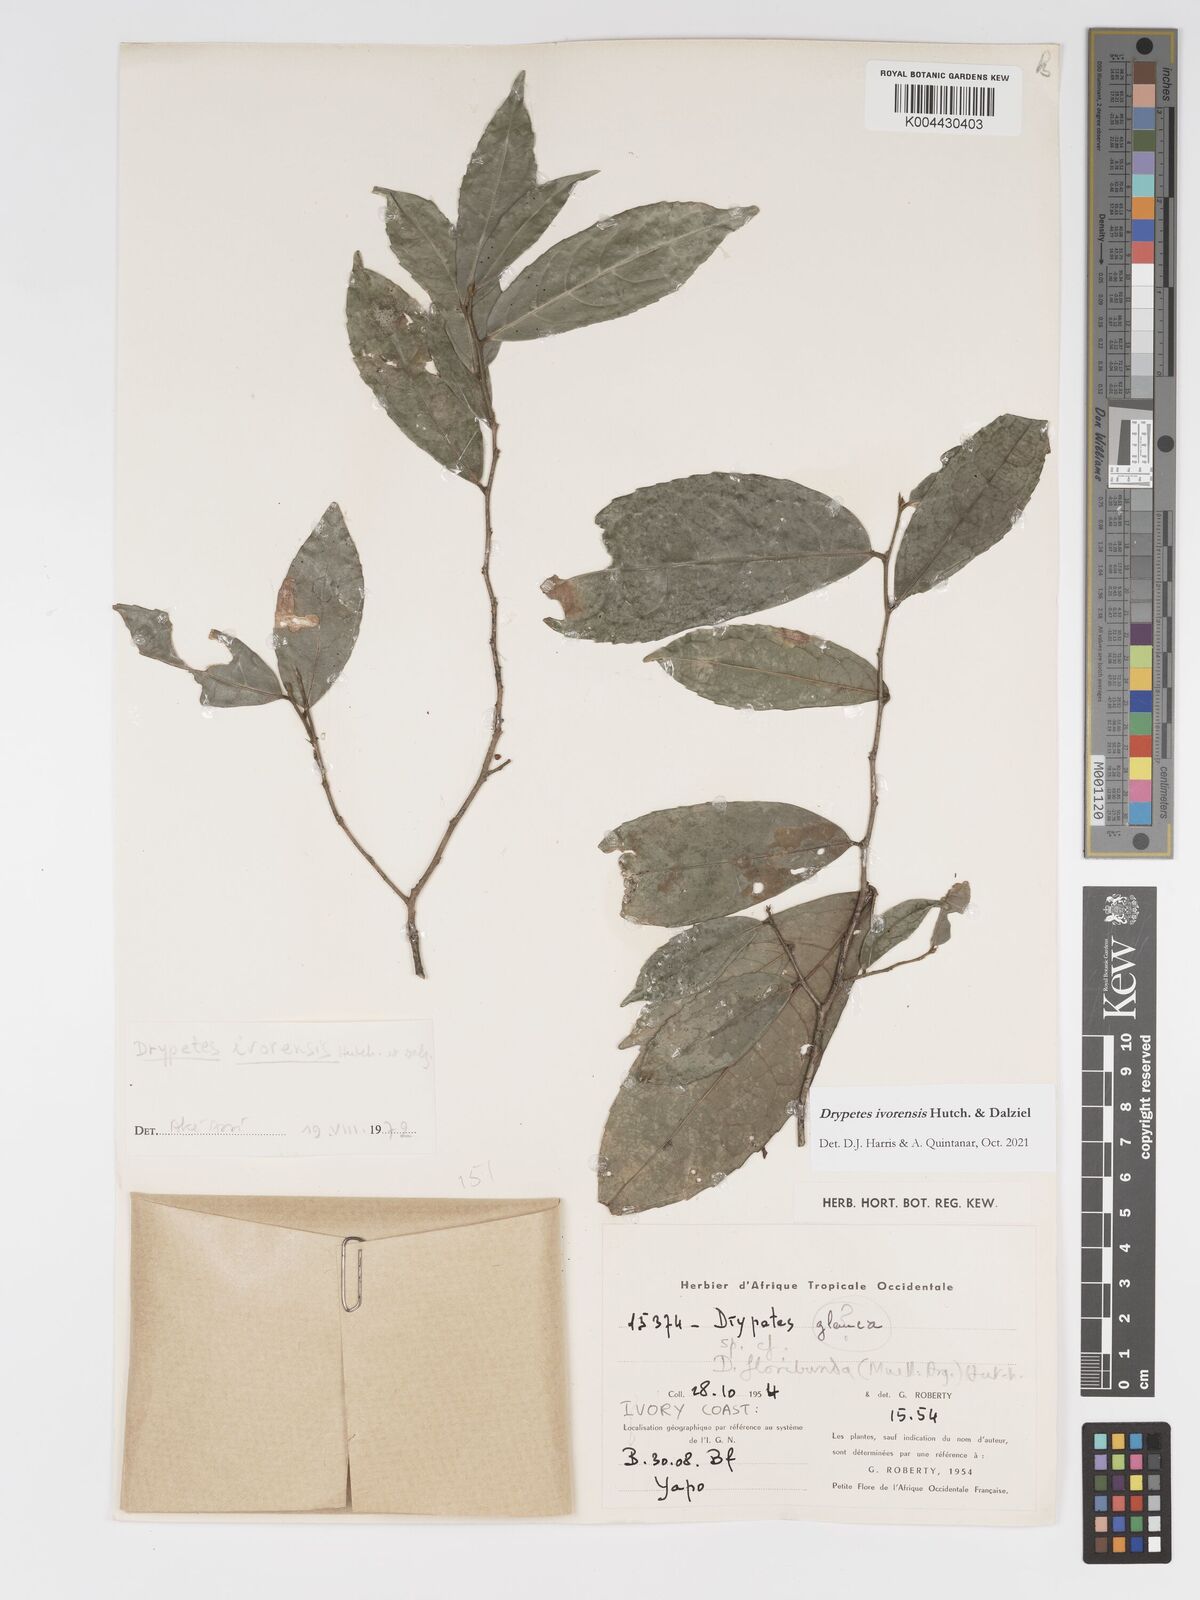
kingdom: Plantae
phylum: Tracheophyta
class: Magnoliopsida
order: Malpighiales
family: Putranjivaceae
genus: Drypetes
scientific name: Drypetes ivorensis
